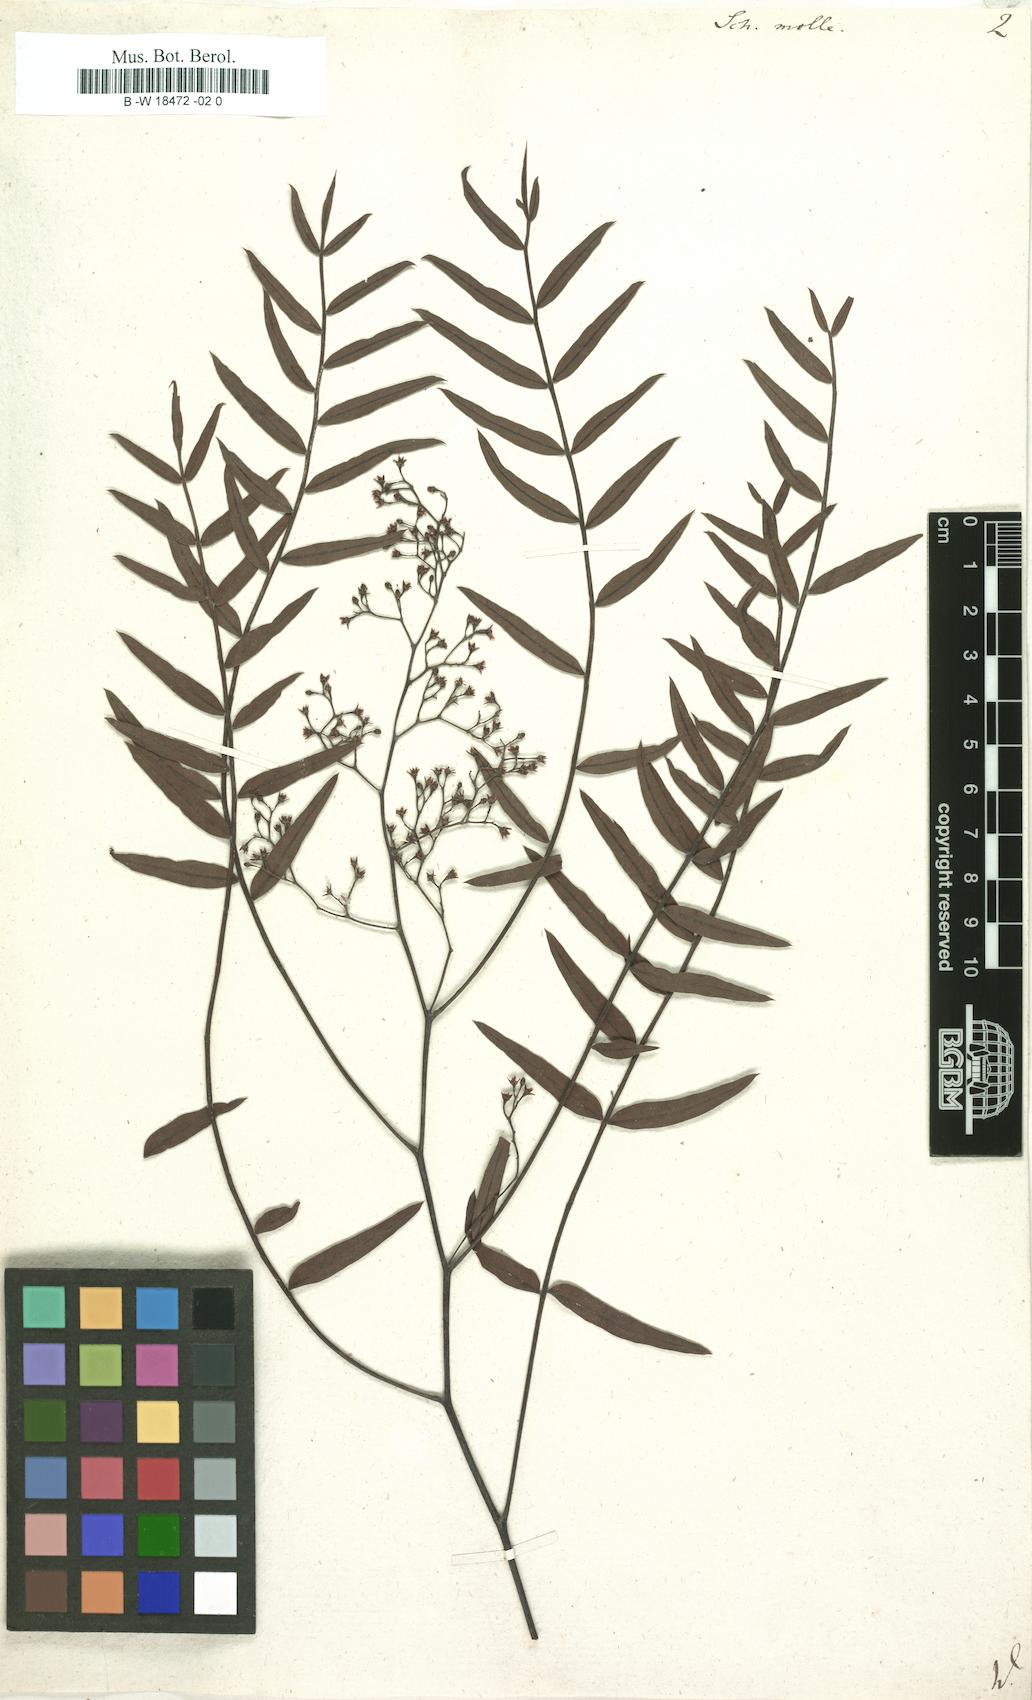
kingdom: Plantae
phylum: Tracheophyta
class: Magnoliopsida
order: Sapindales
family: Anacardiaceae
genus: Schinus
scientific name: Schinus molle
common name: Peruvian peppertree
